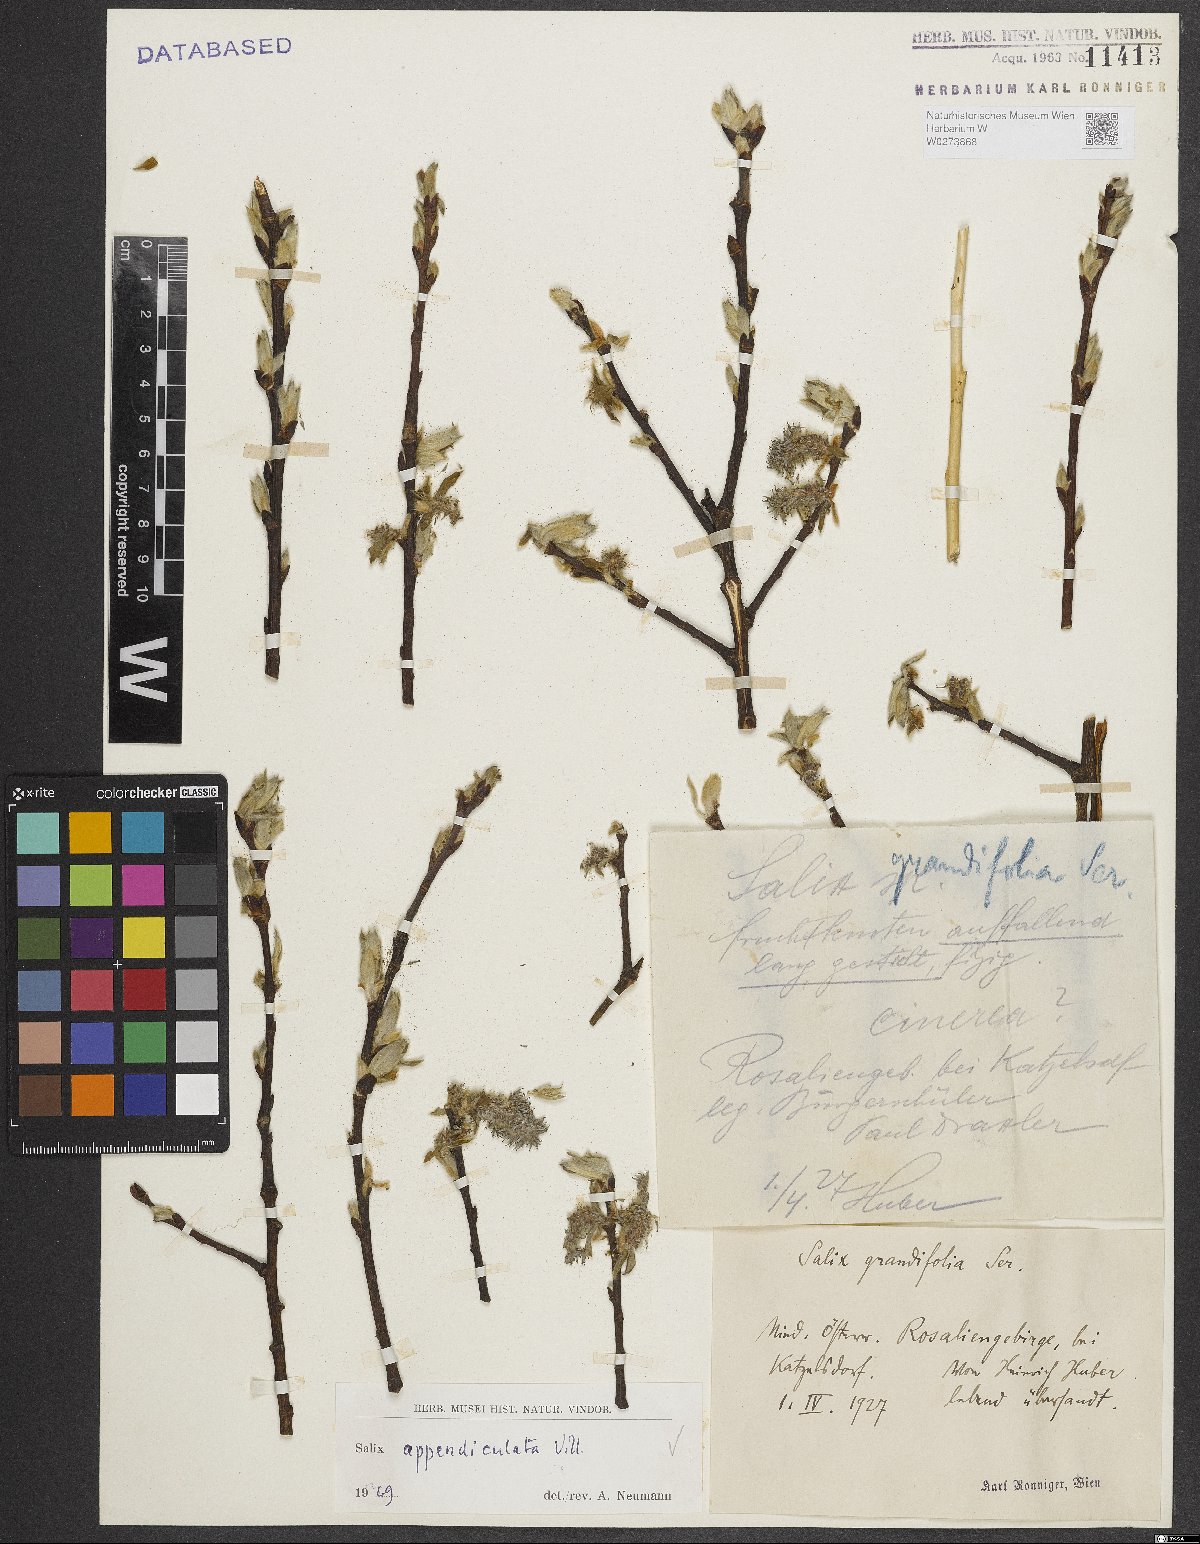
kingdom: Plantae
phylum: Tracheophyta
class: Magnoliopsida
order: Malpighiales
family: Salicaceae
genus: Salix
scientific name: Salix appendiculata
